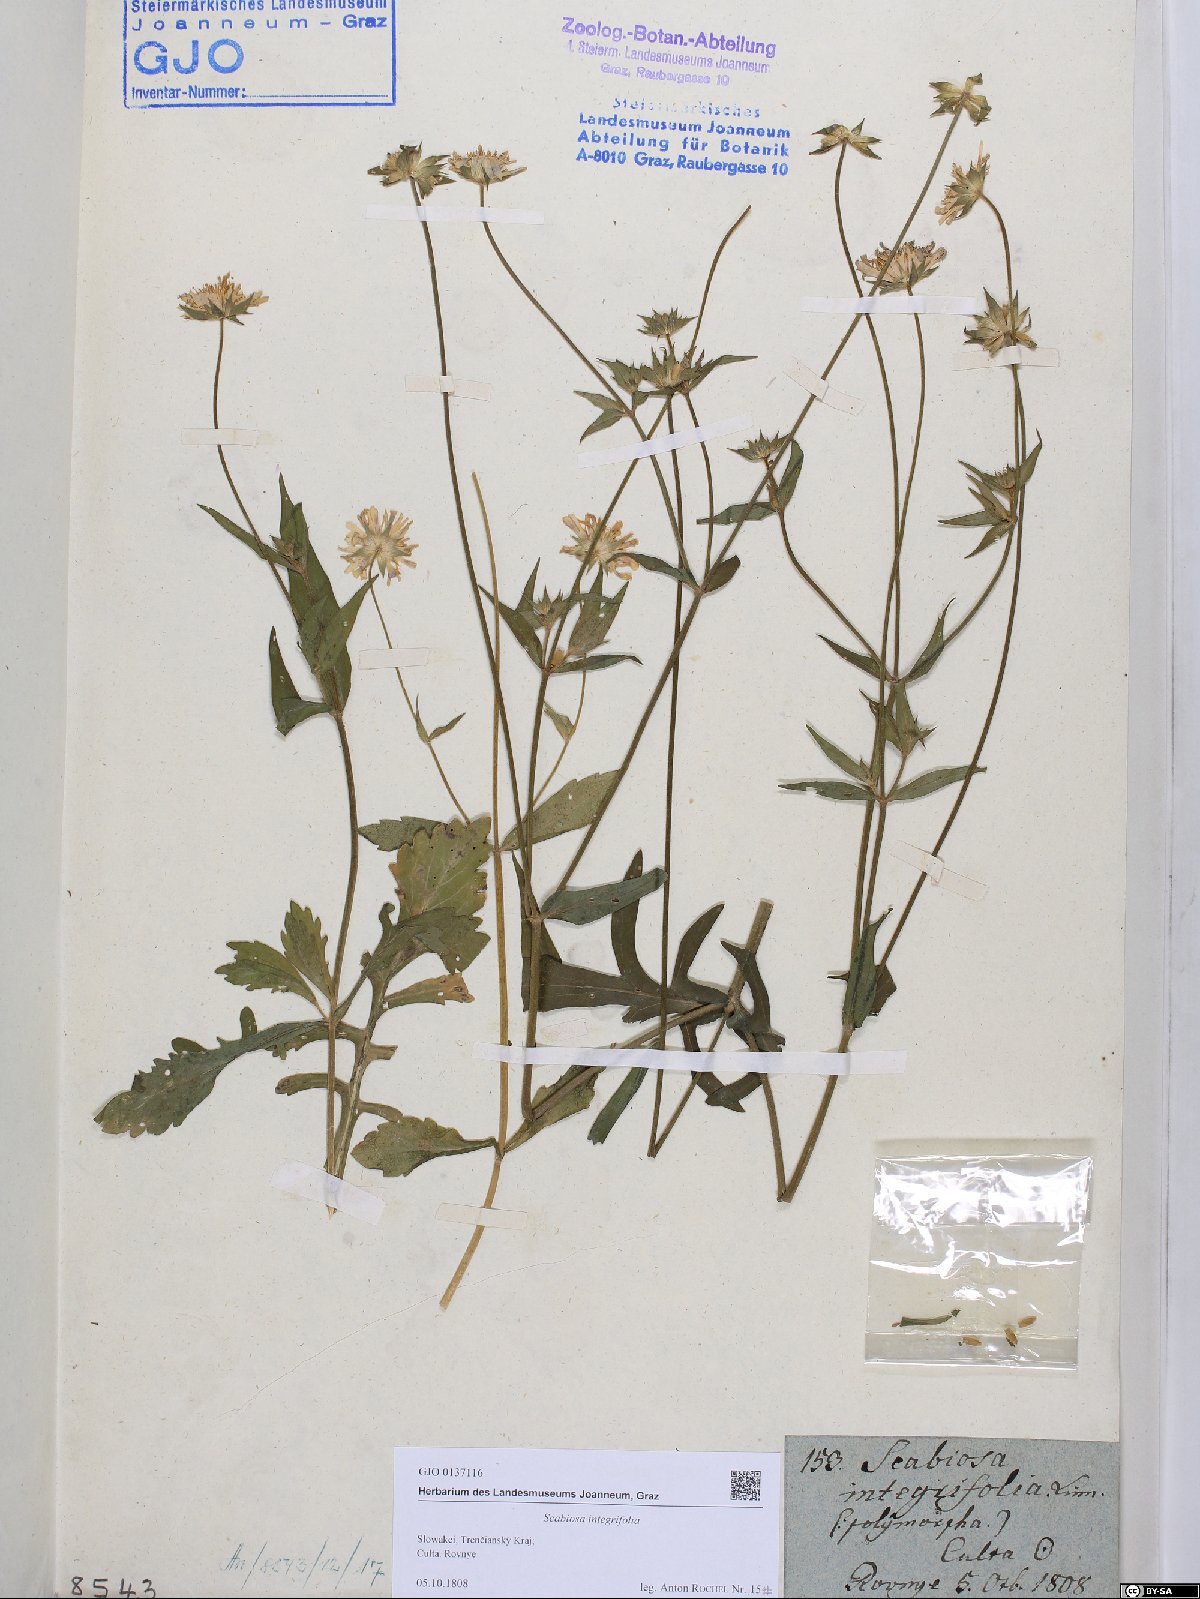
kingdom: Plantae
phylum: Tracheophyta
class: Magnoliopsida
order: Dipsacales
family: Caprifoliaceae
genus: Knautia
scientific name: Knautia integrifolia
